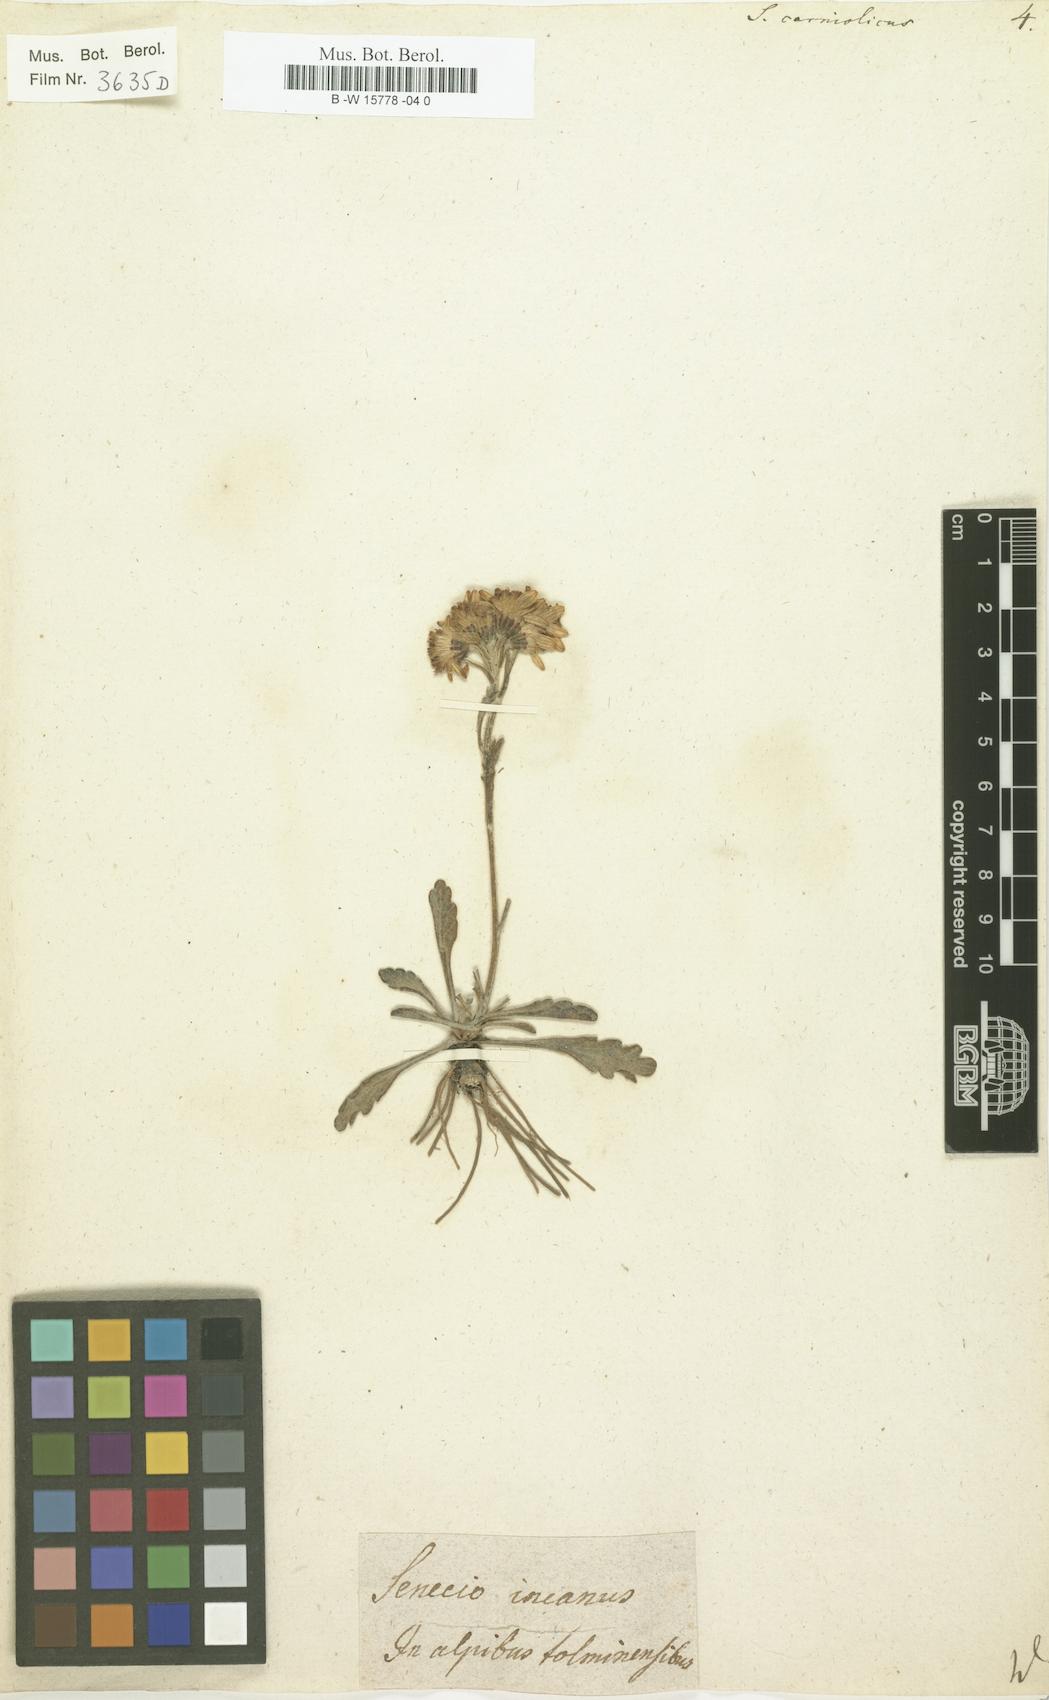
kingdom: Plantae
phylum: Tracheophyta
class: Magnoliopsida
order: Asterales
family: Asteraceae
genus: Jacobaea
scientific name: Jacobaea carniolica
